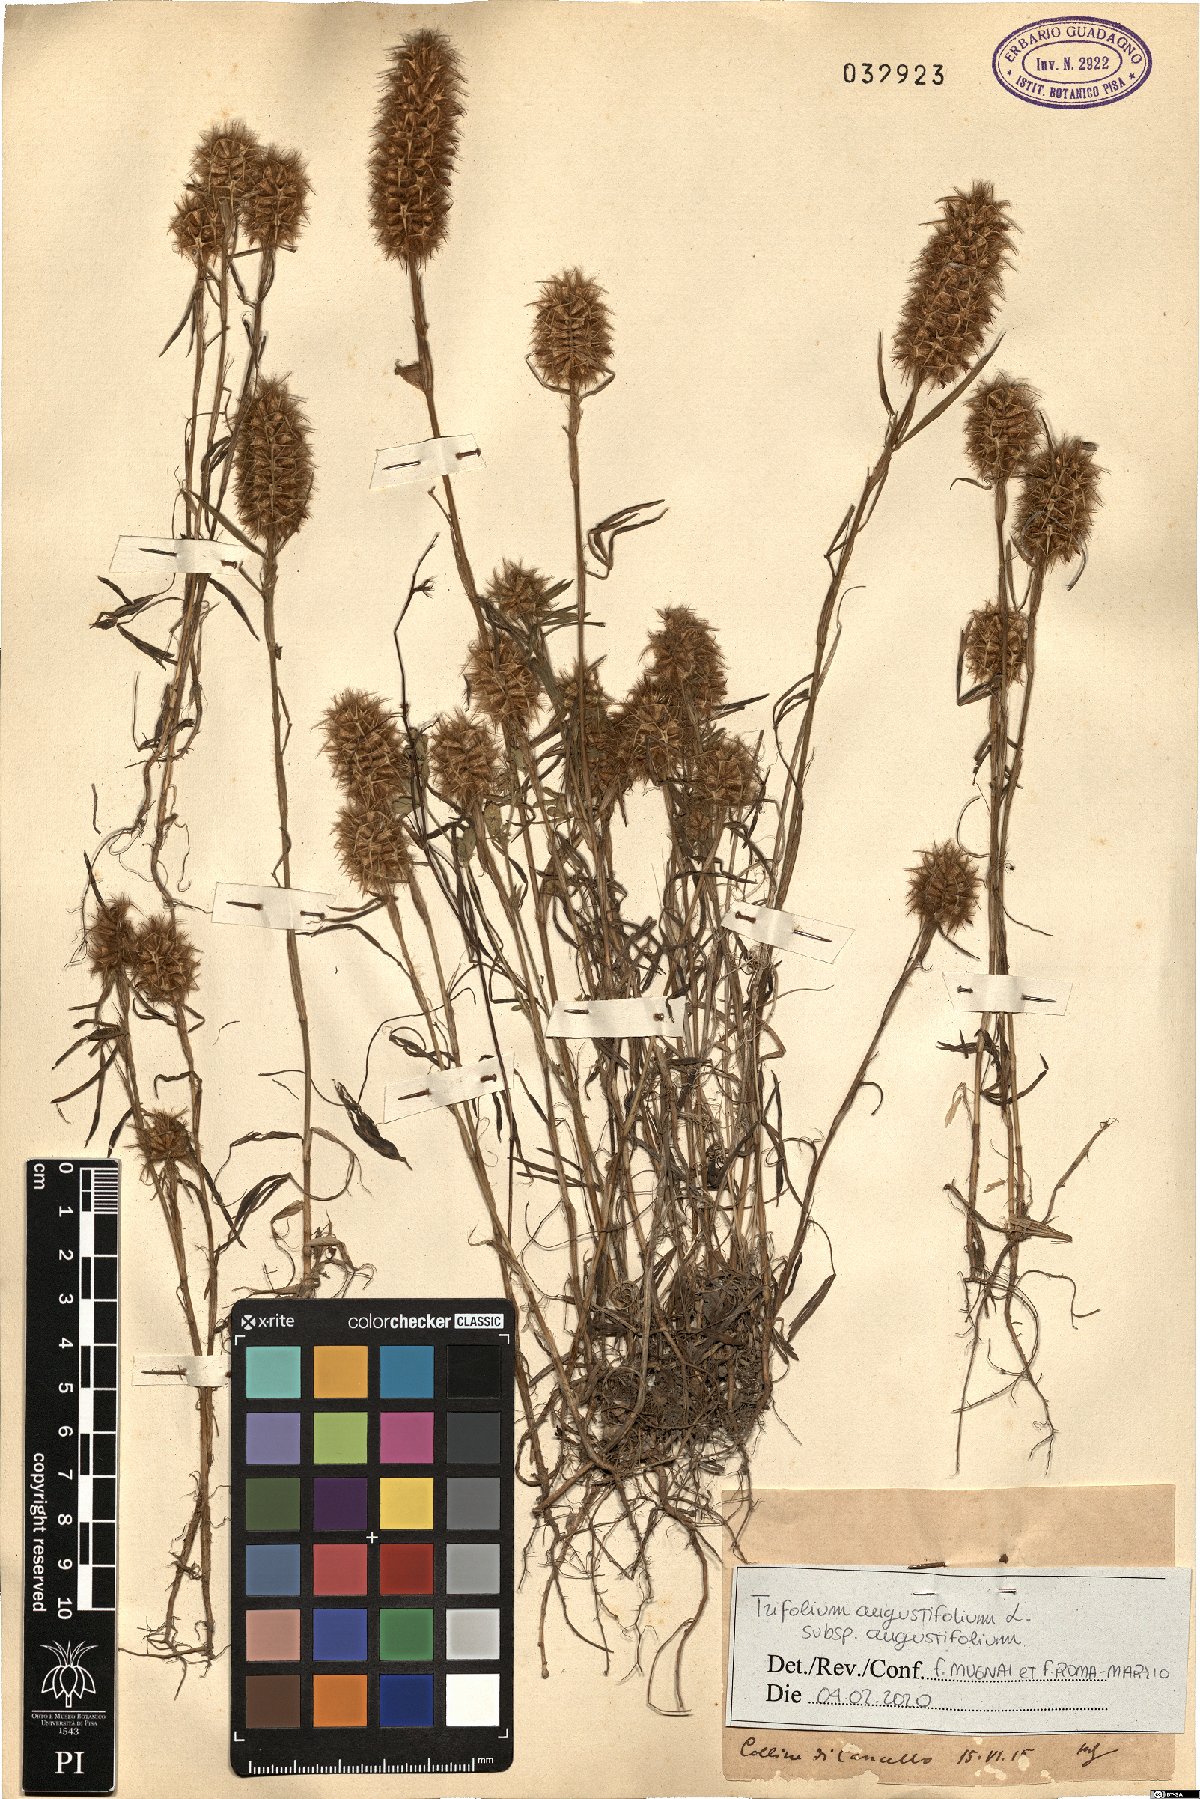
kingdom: Plantae
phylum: Tracheophyta
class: Magnoliopsida
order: Fabales
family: Fabaceae
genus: Trifolium
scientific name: Trifolium angustifolium
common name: Narrow clover
